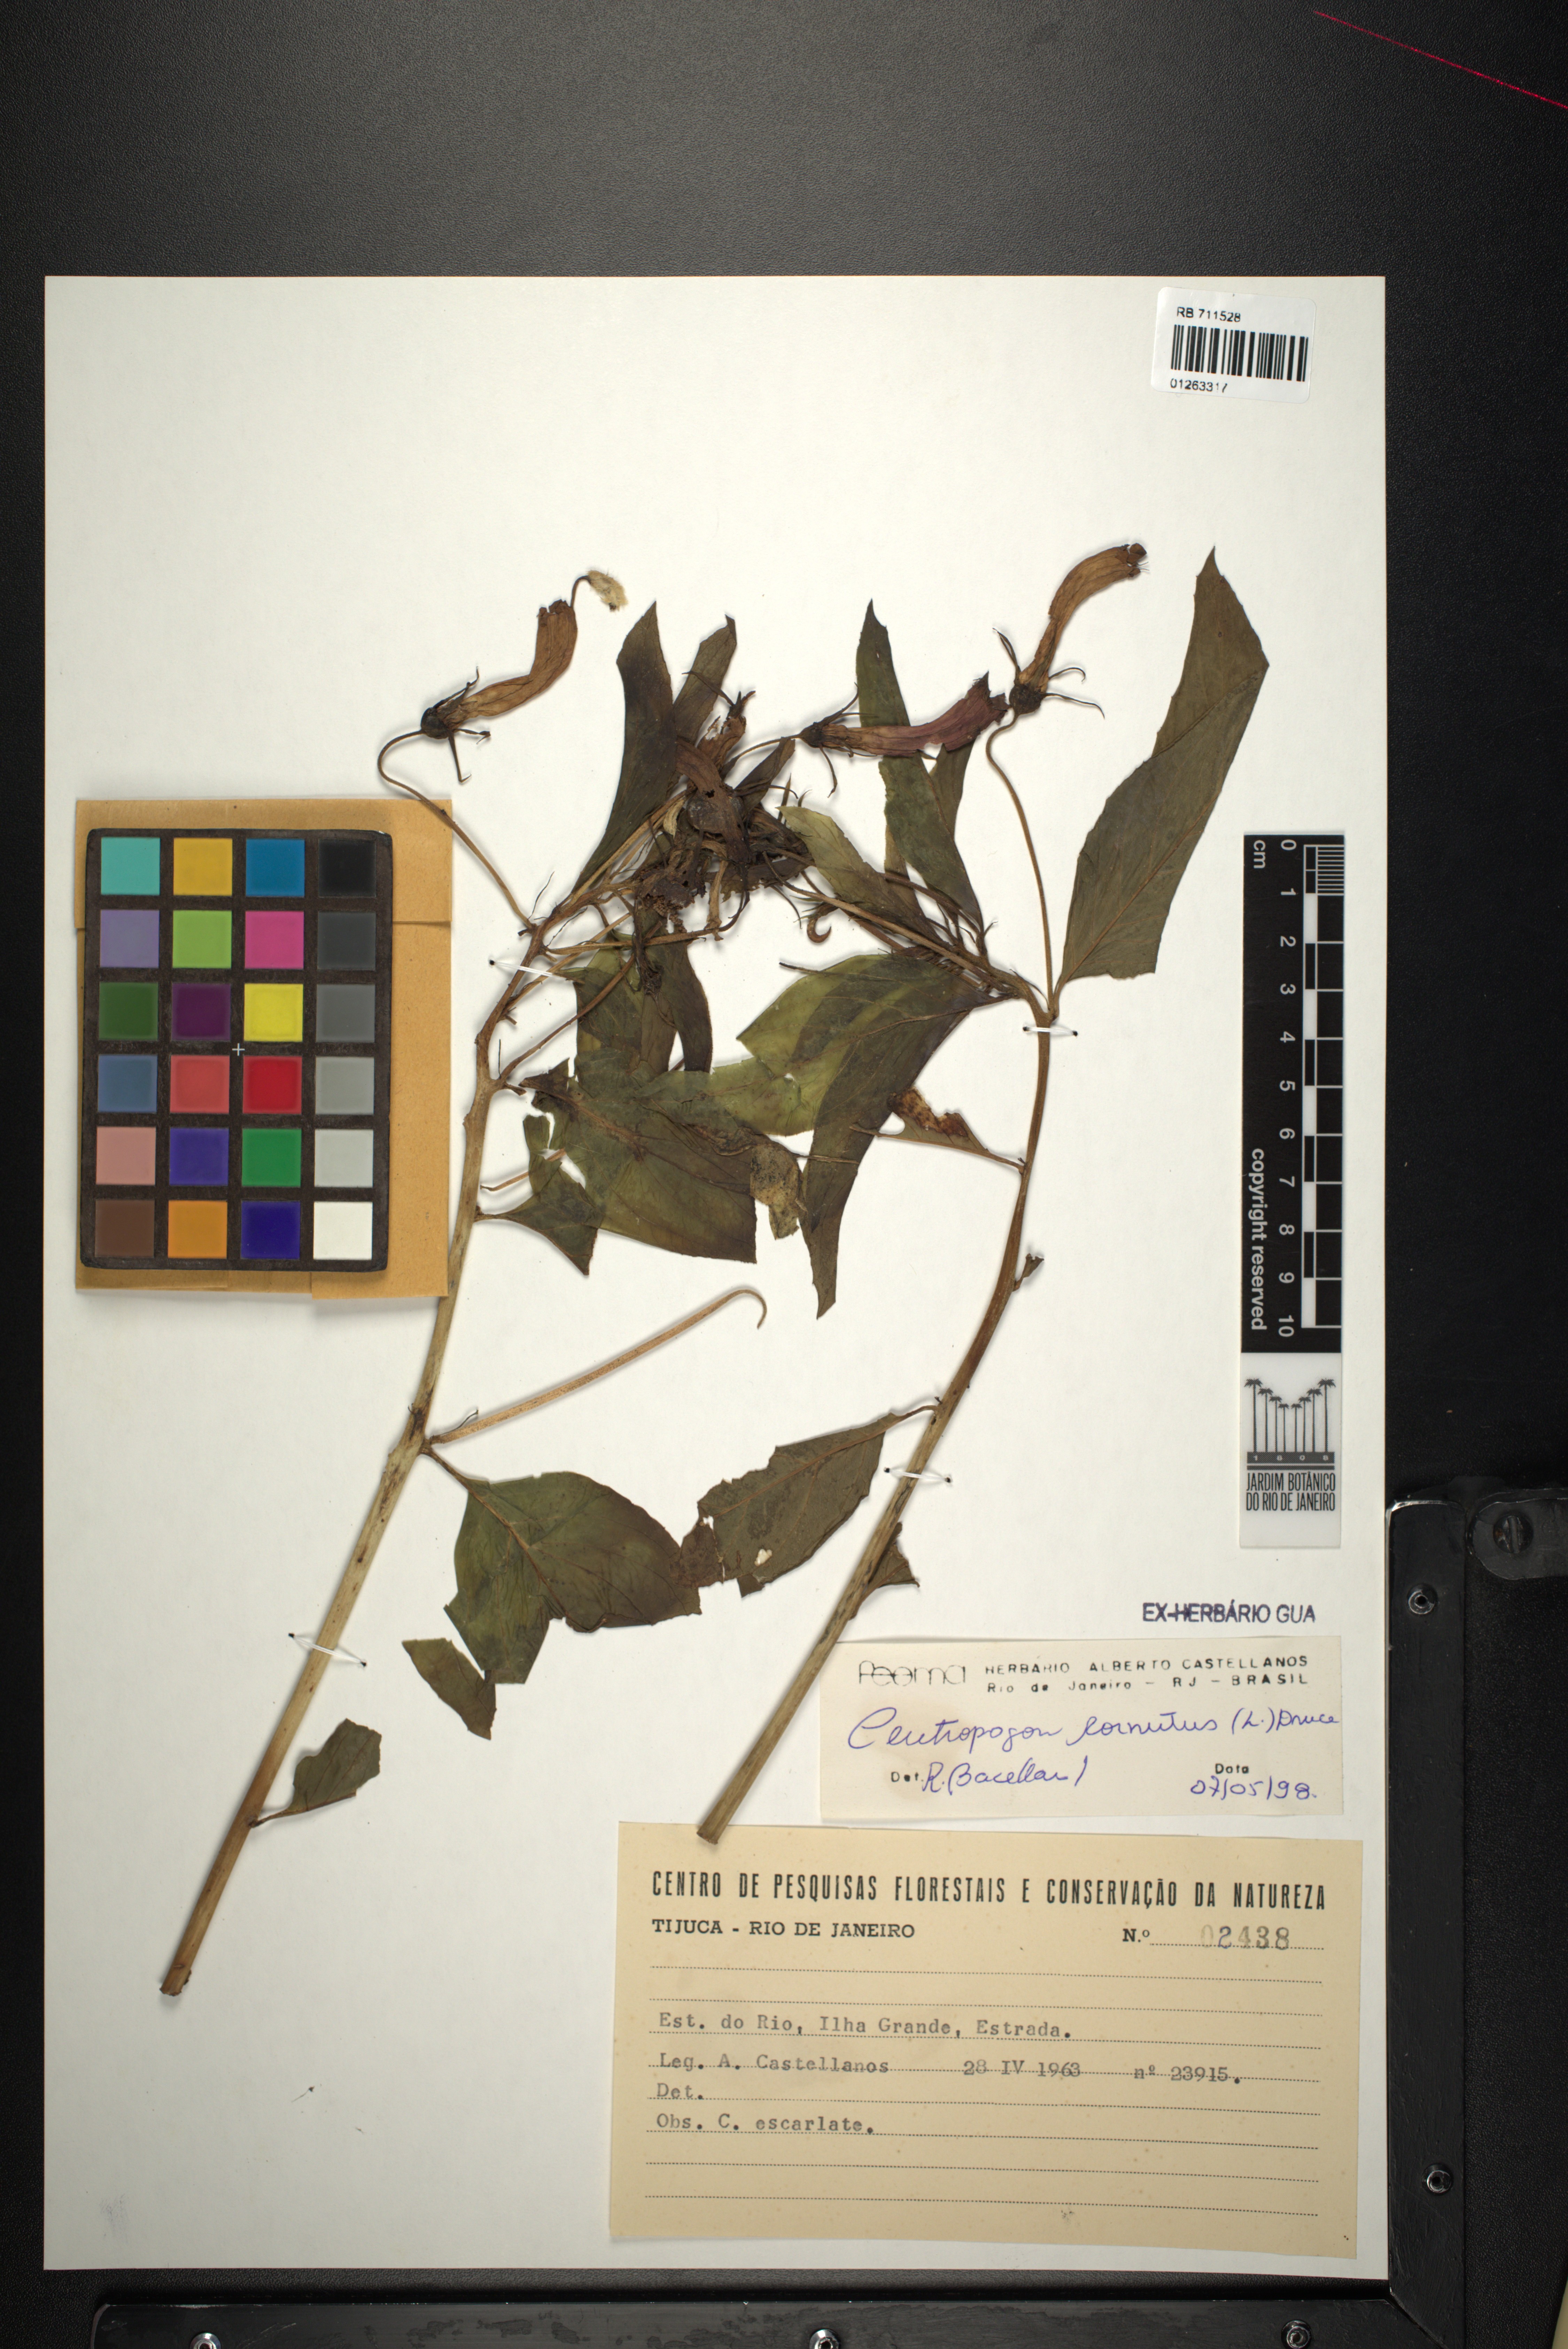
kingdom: Plantae
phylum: Tracheophyta
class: Magnoliopsida
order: Asterales
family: Campanulaceae
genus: Centropogon
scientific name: Centropogon cornutus
